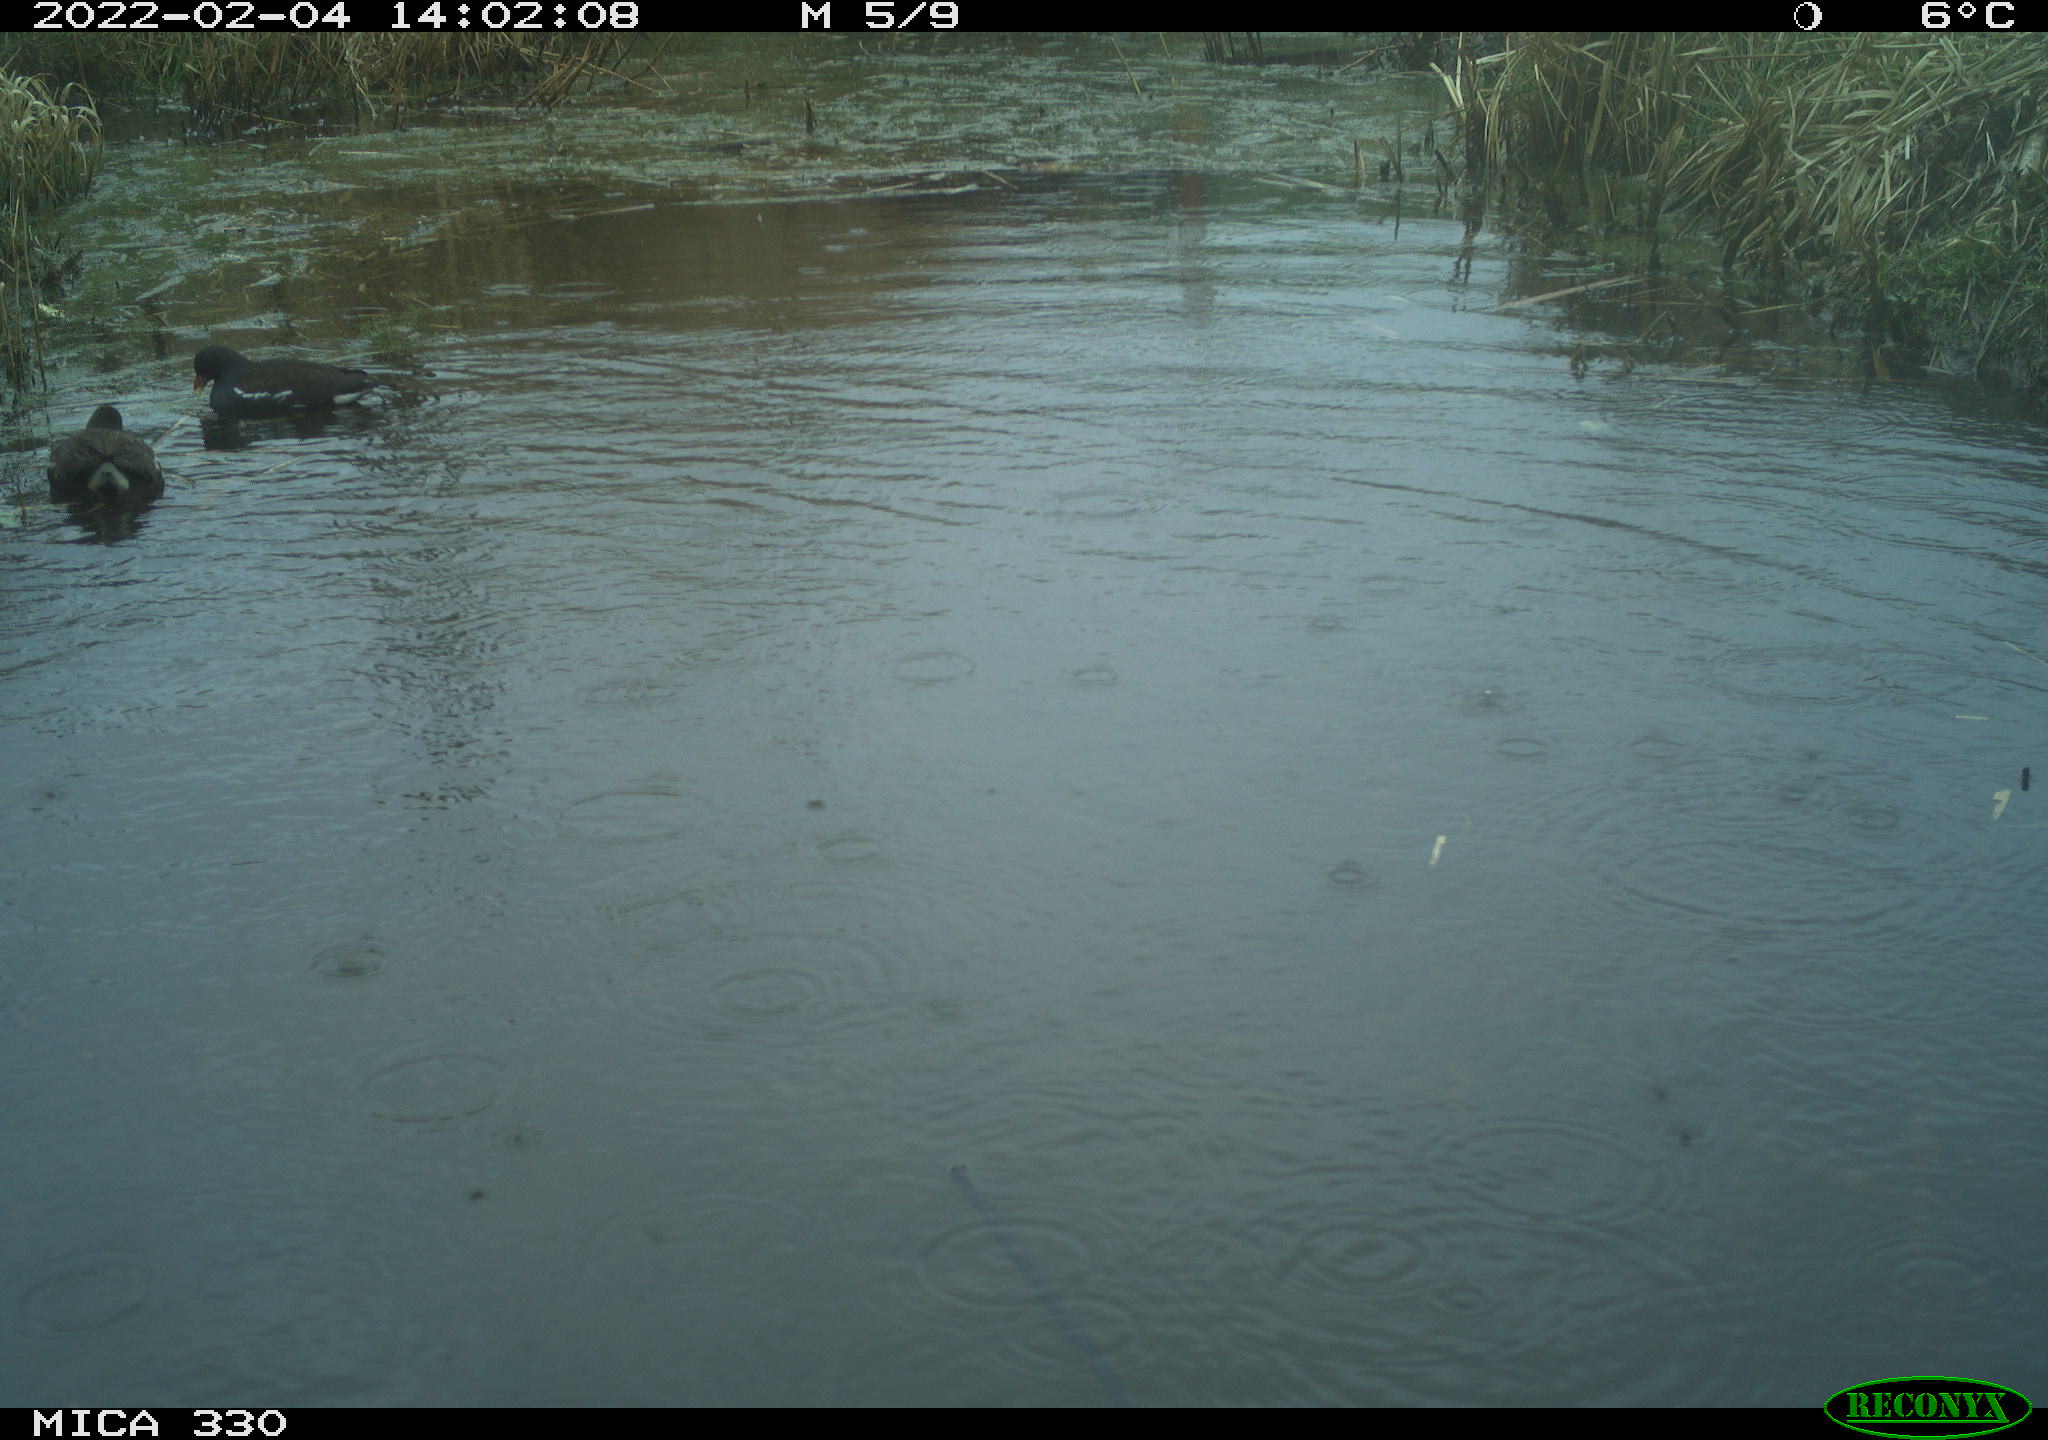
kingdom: Animalia
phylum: Chordata
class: Aves
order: Gruiformes
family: Rallidae
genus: Gallinula
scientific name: Gallinula chloropus
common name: Common moorhen
